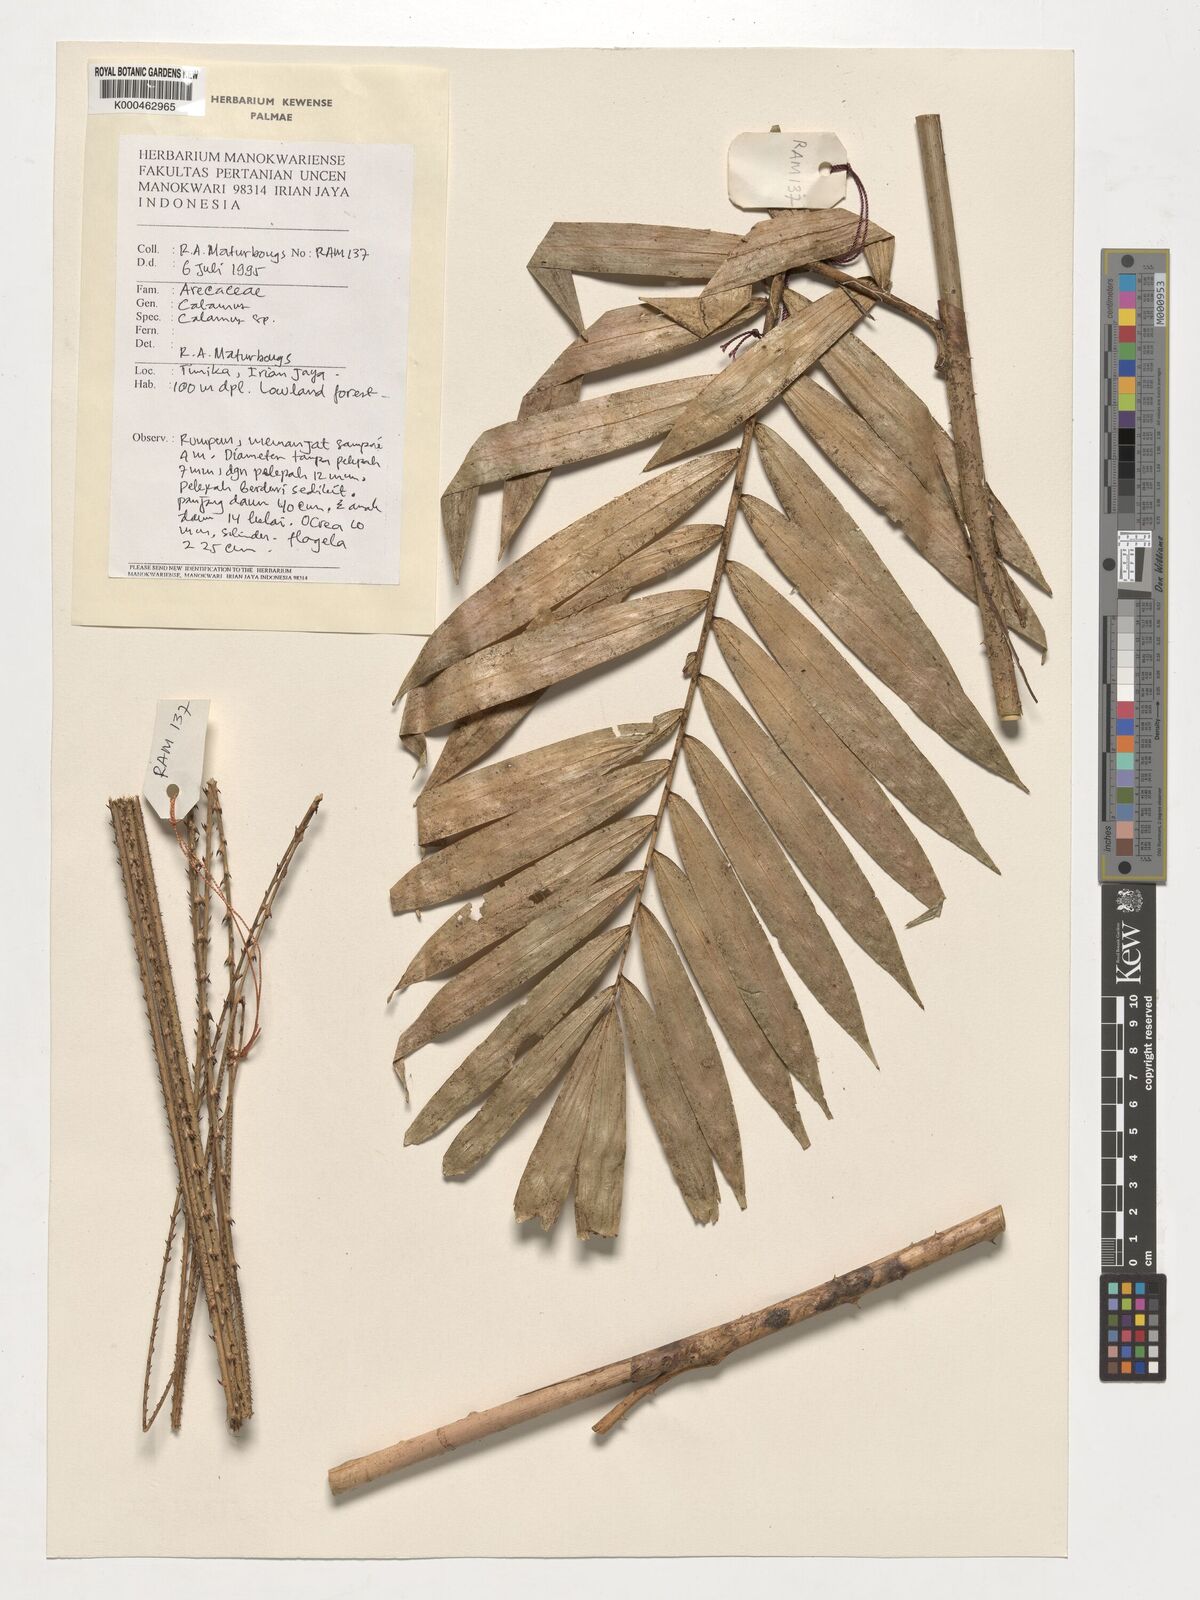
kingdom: Plantae
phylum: Tracheophyta
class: Liliopsida
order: Arecales
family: Arecaceae
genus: Calamus
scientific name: Calamus
